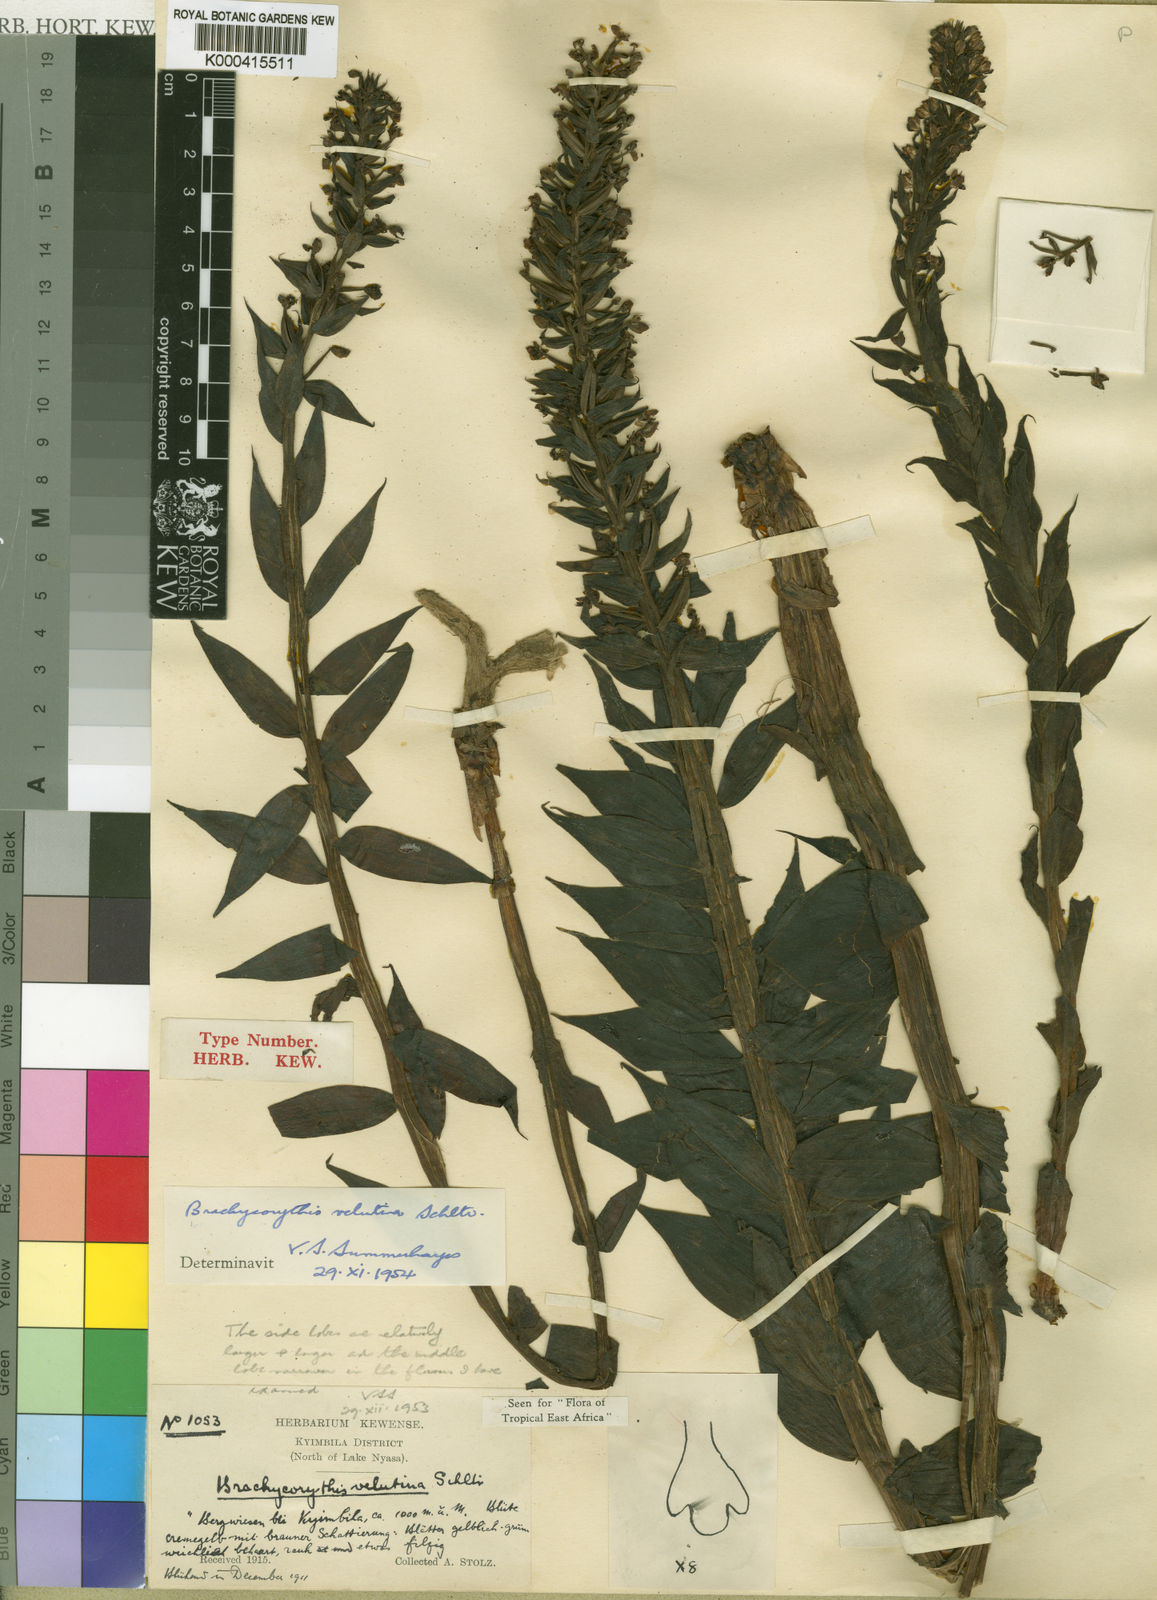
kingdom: Plantae
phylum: Tracheophyta
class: Liliopsida
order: Asparagales
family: Orchidaceae
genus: Brachycorythis
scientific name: Brachycorythis velutina
